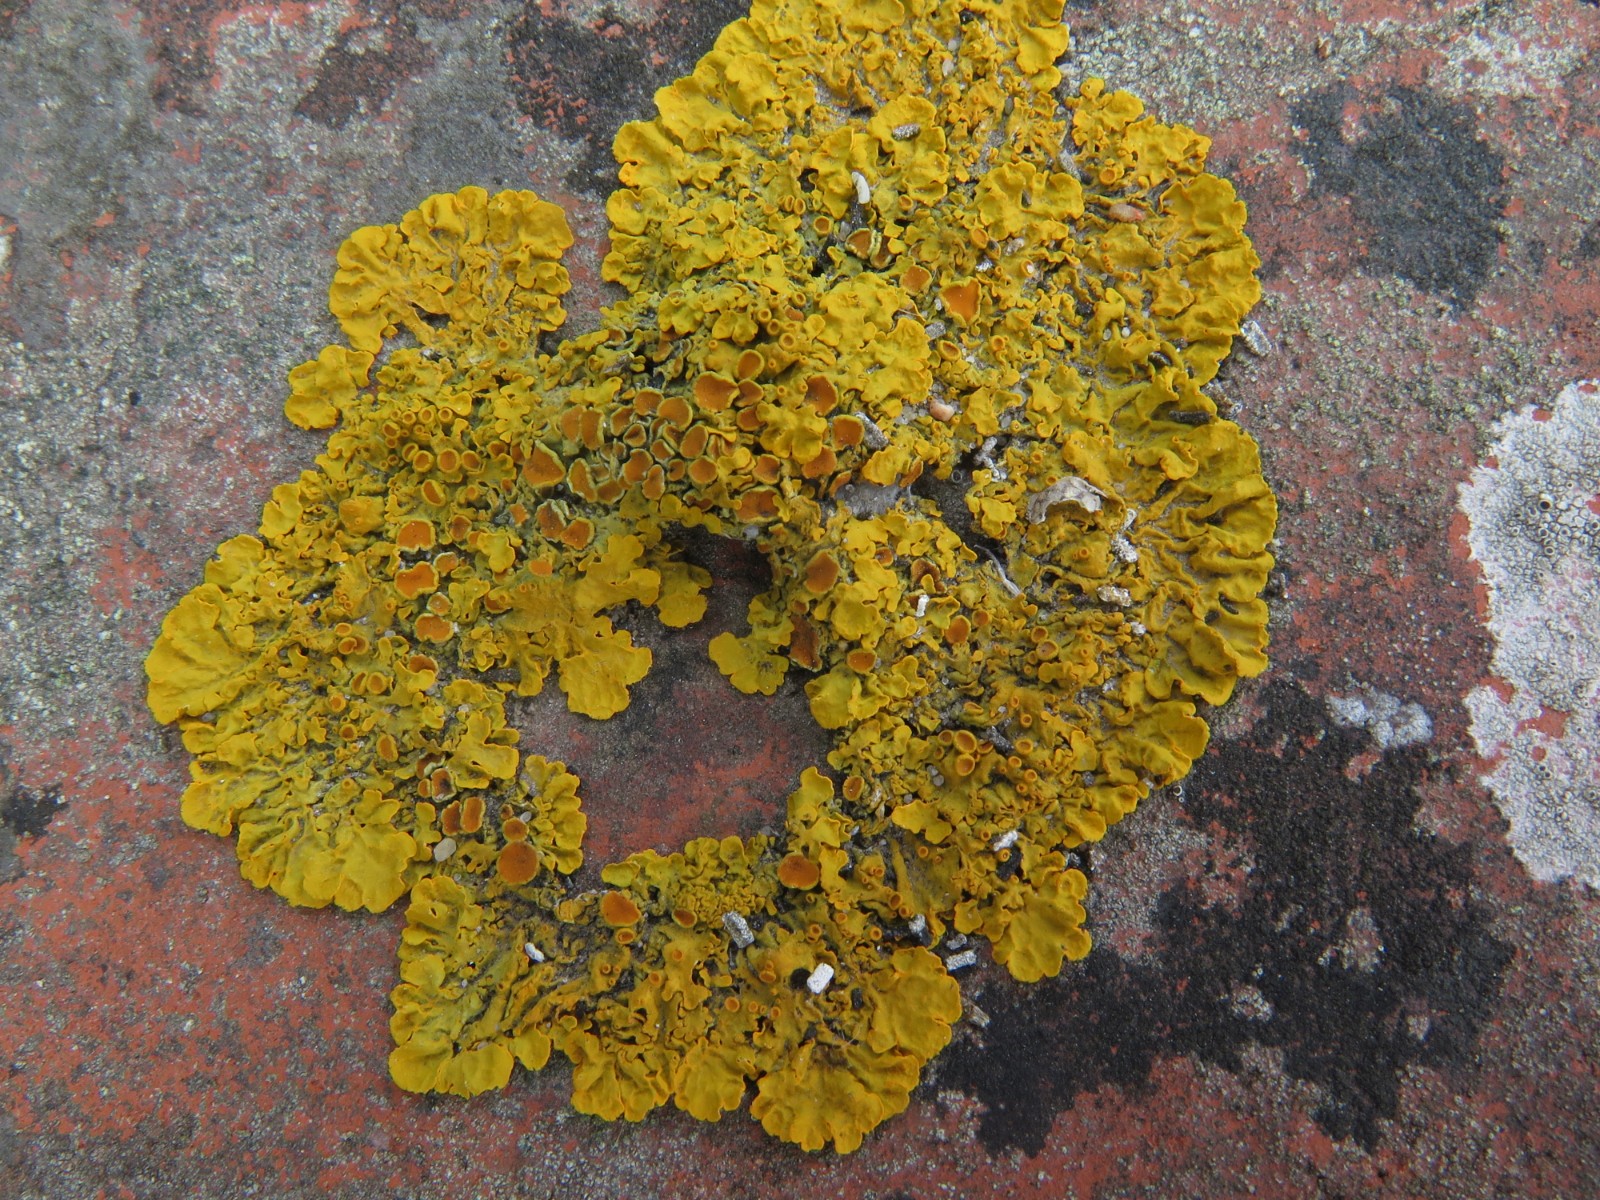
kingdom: Fungi
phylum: Ascomycota
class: Lecanoromycetes
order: Teloschistales
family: Teloschistaceae
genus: Xanthoria
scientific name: Xanthoria parietina
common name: almindelig væggelav
